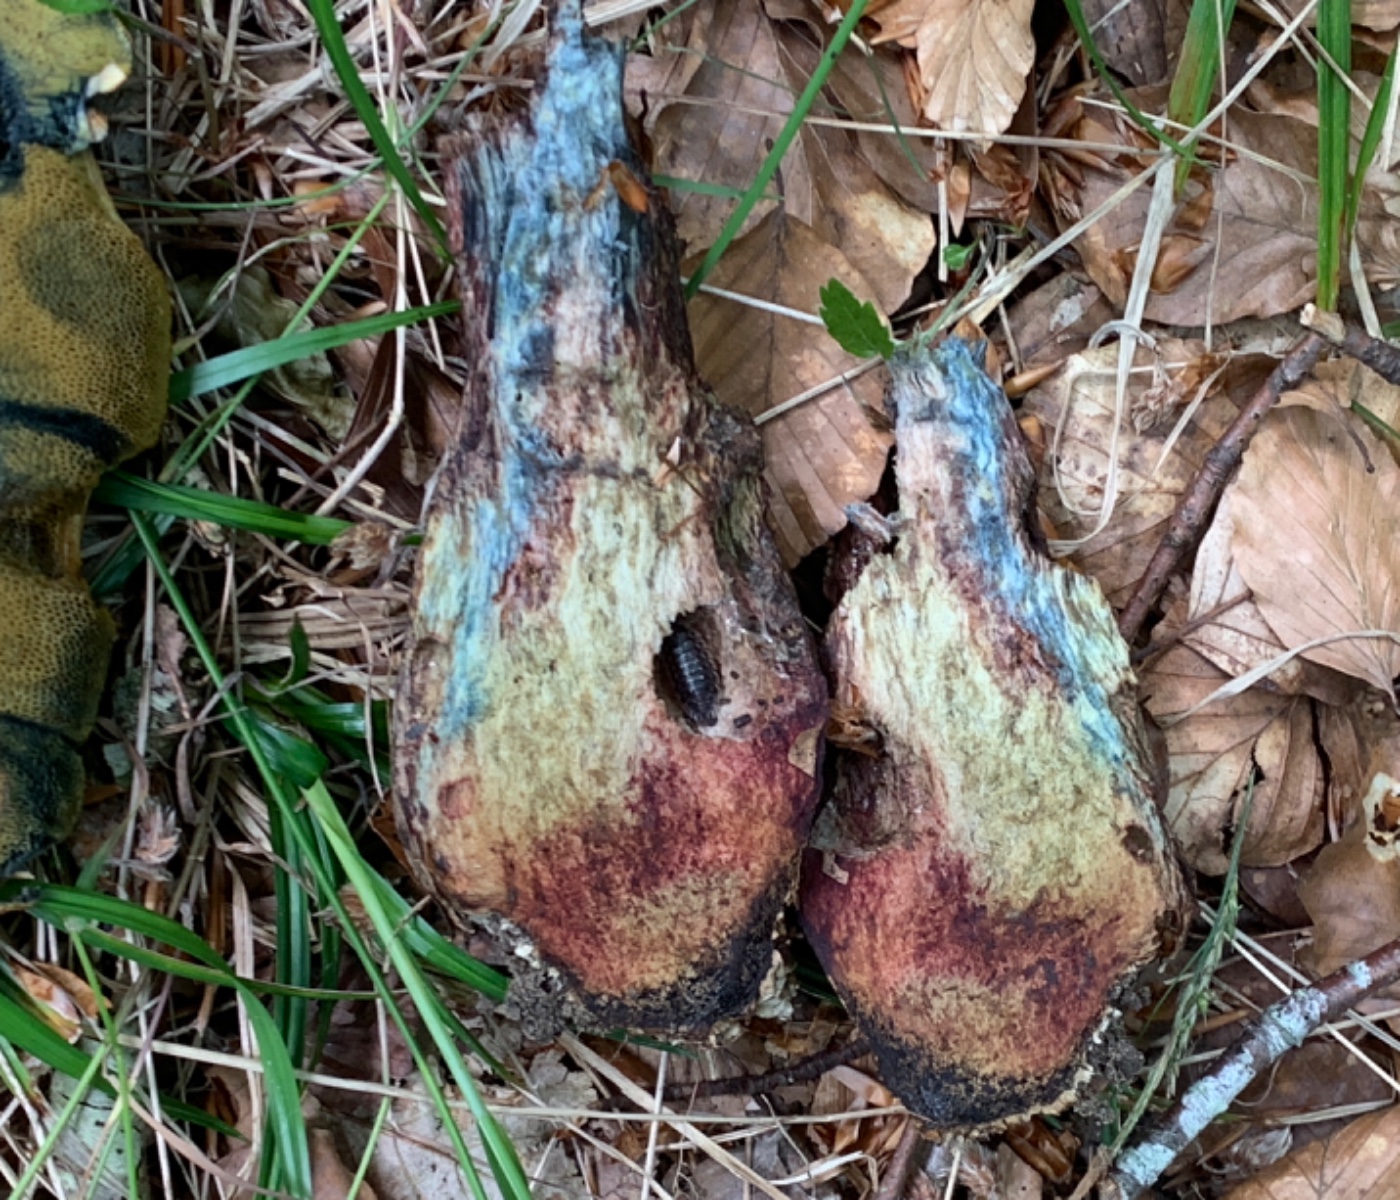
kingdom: Fungi
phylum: Basidiomycota
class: Agaricomycetes
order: Boletales
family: Boletaceae
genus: Suillellus
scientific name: Suillellus luridus
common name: netstokket indigorørhat
